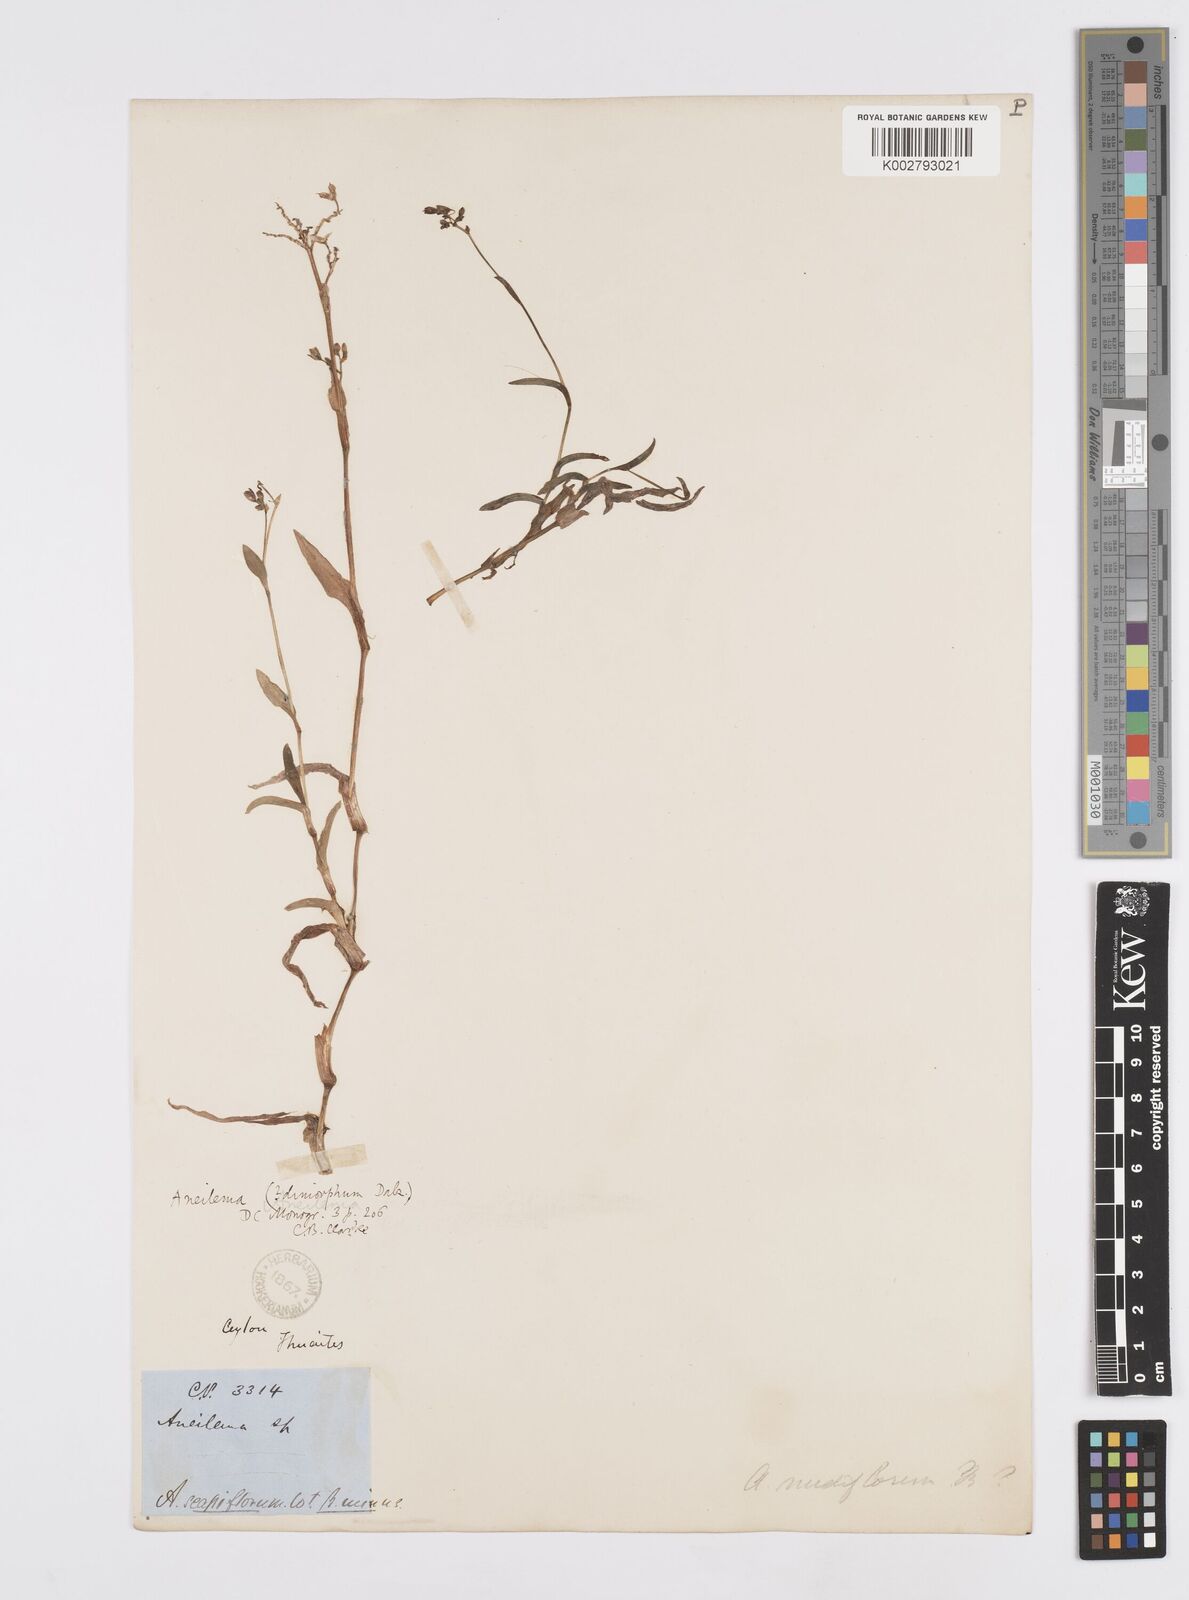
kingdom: Plantae
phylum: Tracheophyta
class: Liliopsida
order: Commelinales
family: Commelinaceae
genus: Murdannia
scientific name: Murdannia dimorpha
